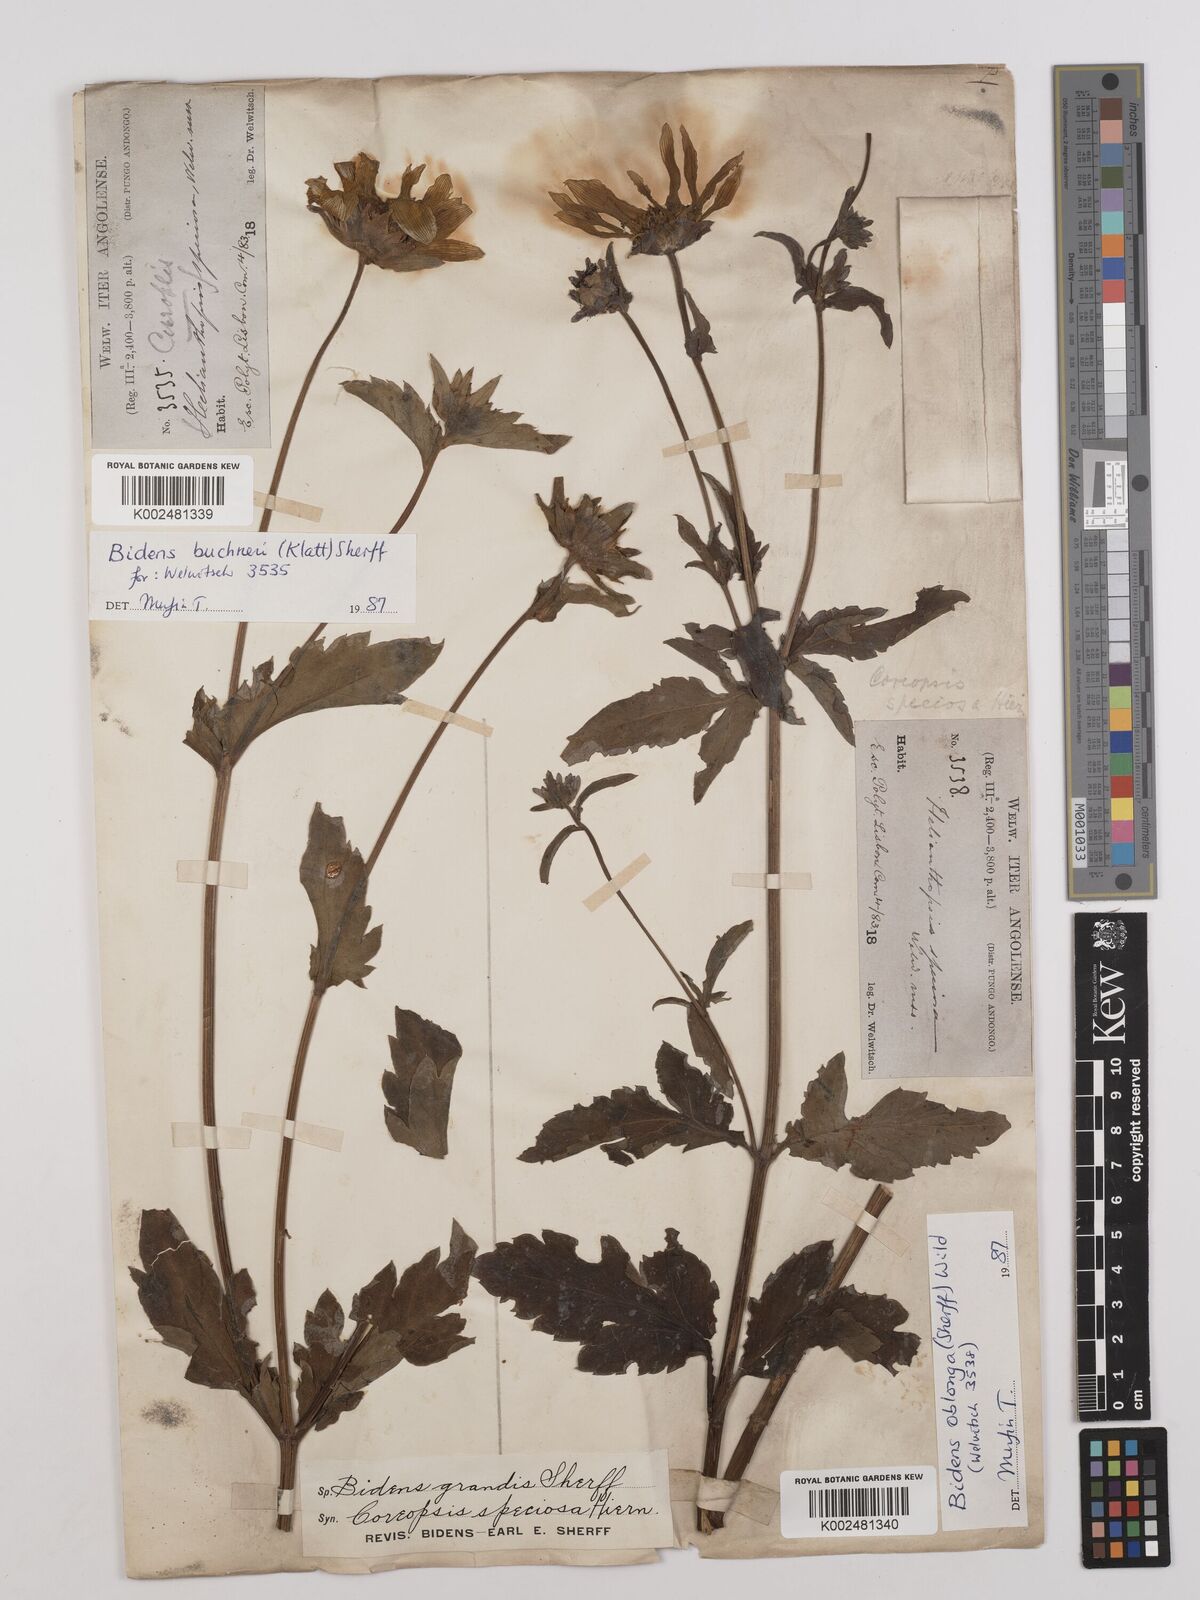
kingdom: Plantae
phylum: Tracheophyta
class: Magnoliopsida
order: Asterales
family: Asteraceae
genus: Bidens
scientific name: Bidens oblonga
